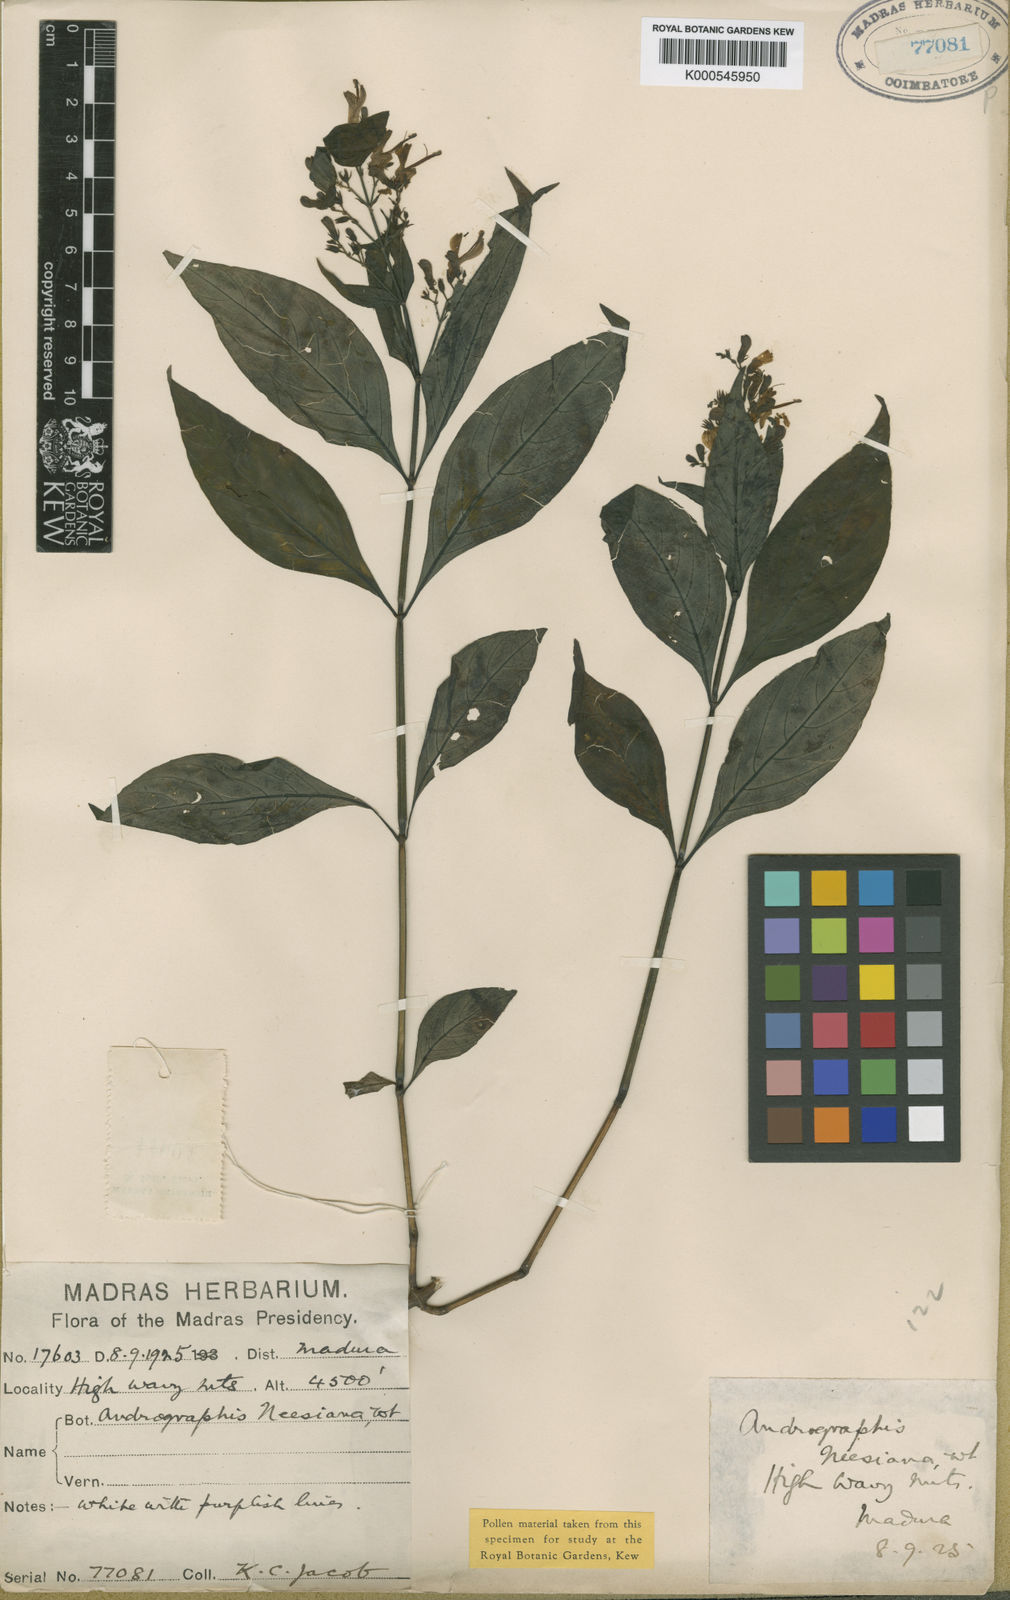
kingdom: Plantae
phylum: Tracheophyta
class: Magnoliopsida
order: Lamiales
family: Acanthaceae
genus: Andrographis
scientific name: Andrographis neesiana
